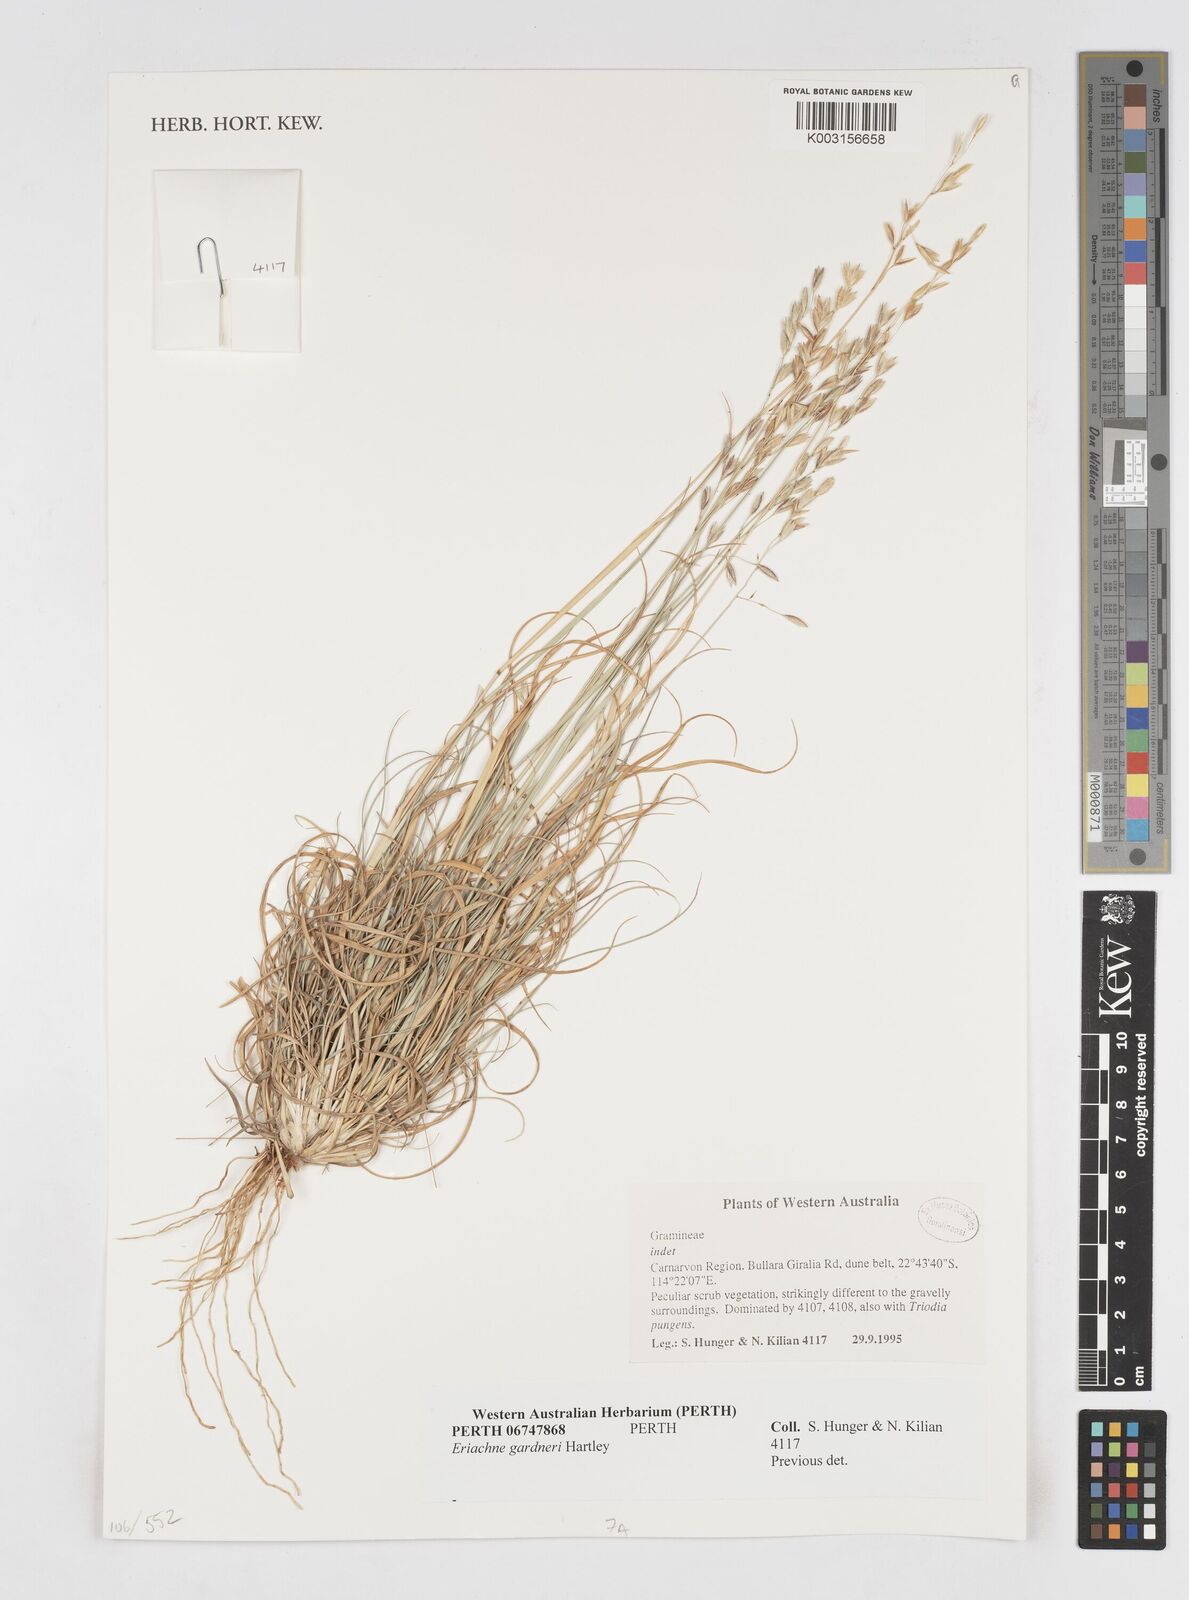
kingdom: Plantae
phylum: Tracheophyta
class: Liliopsida
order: Poales
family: Poaceae
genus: Eriachne
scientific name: Eriachne gardneri
